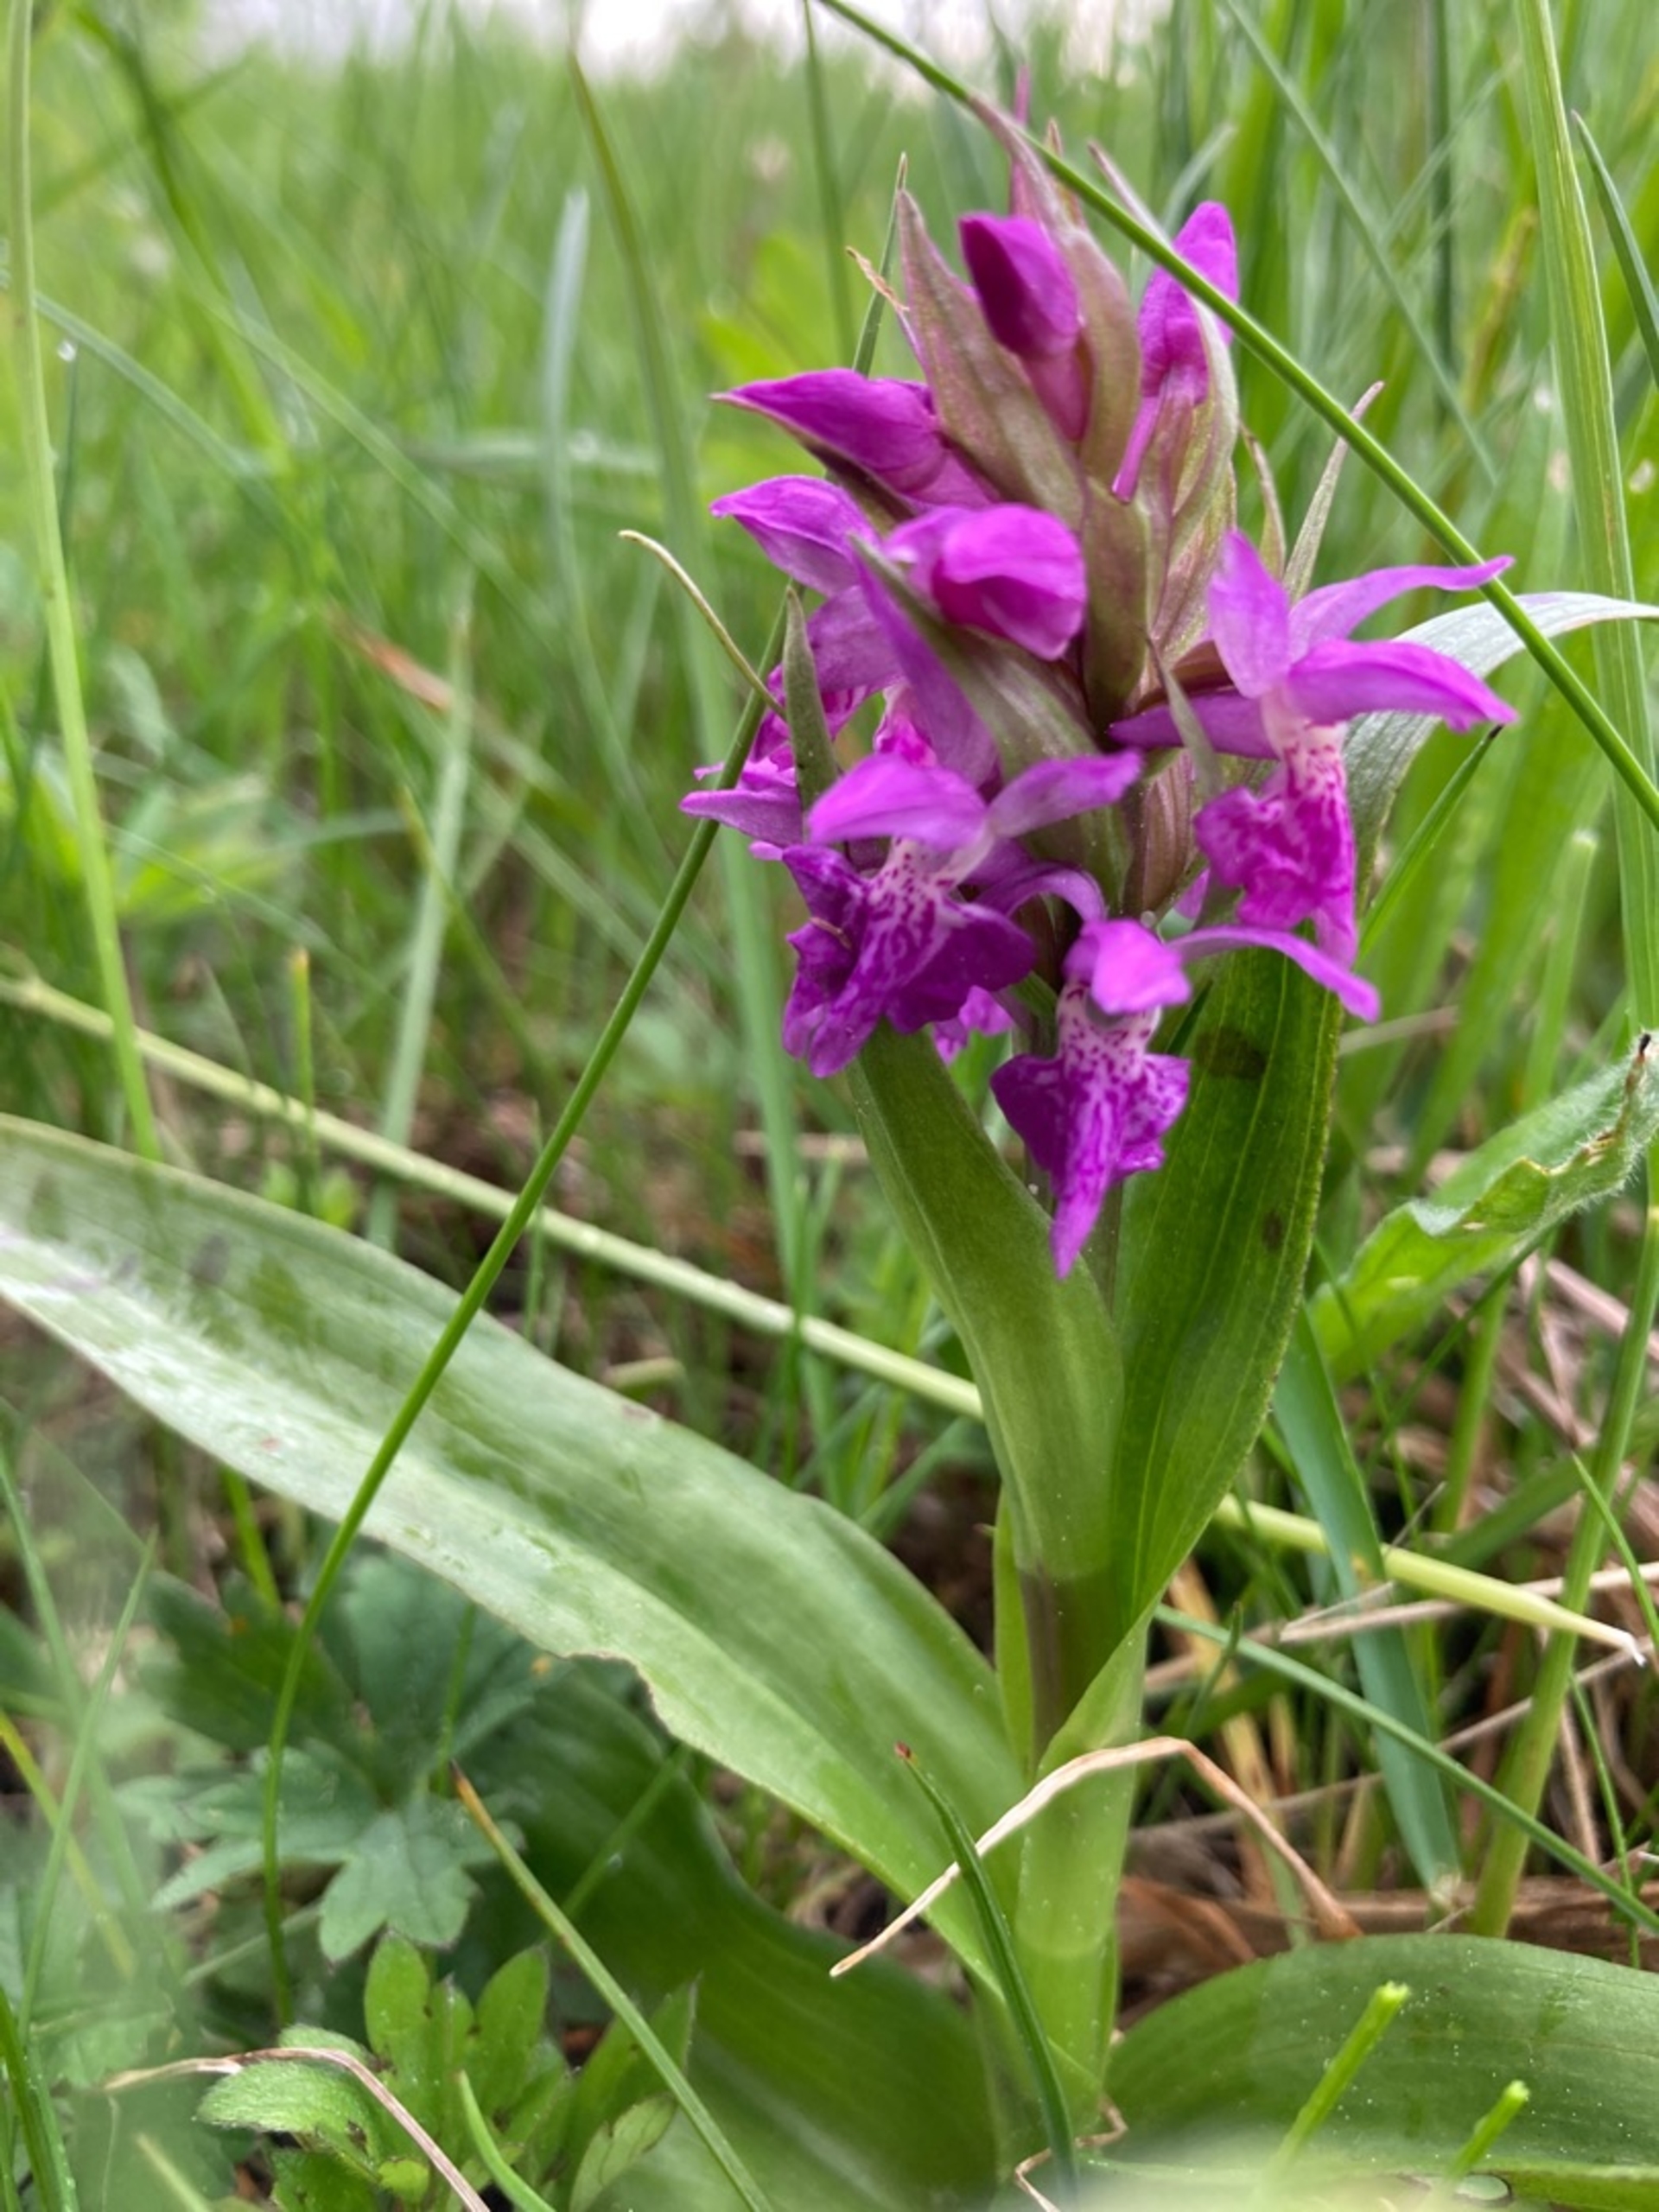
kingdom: Plantae
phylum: Tracheophyta
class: Liliopsida
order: Asparagales
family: Orchidaceae
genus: Dactylorhiza
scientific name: Dactylorhiza majalis
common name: Maj-gøgeurt
